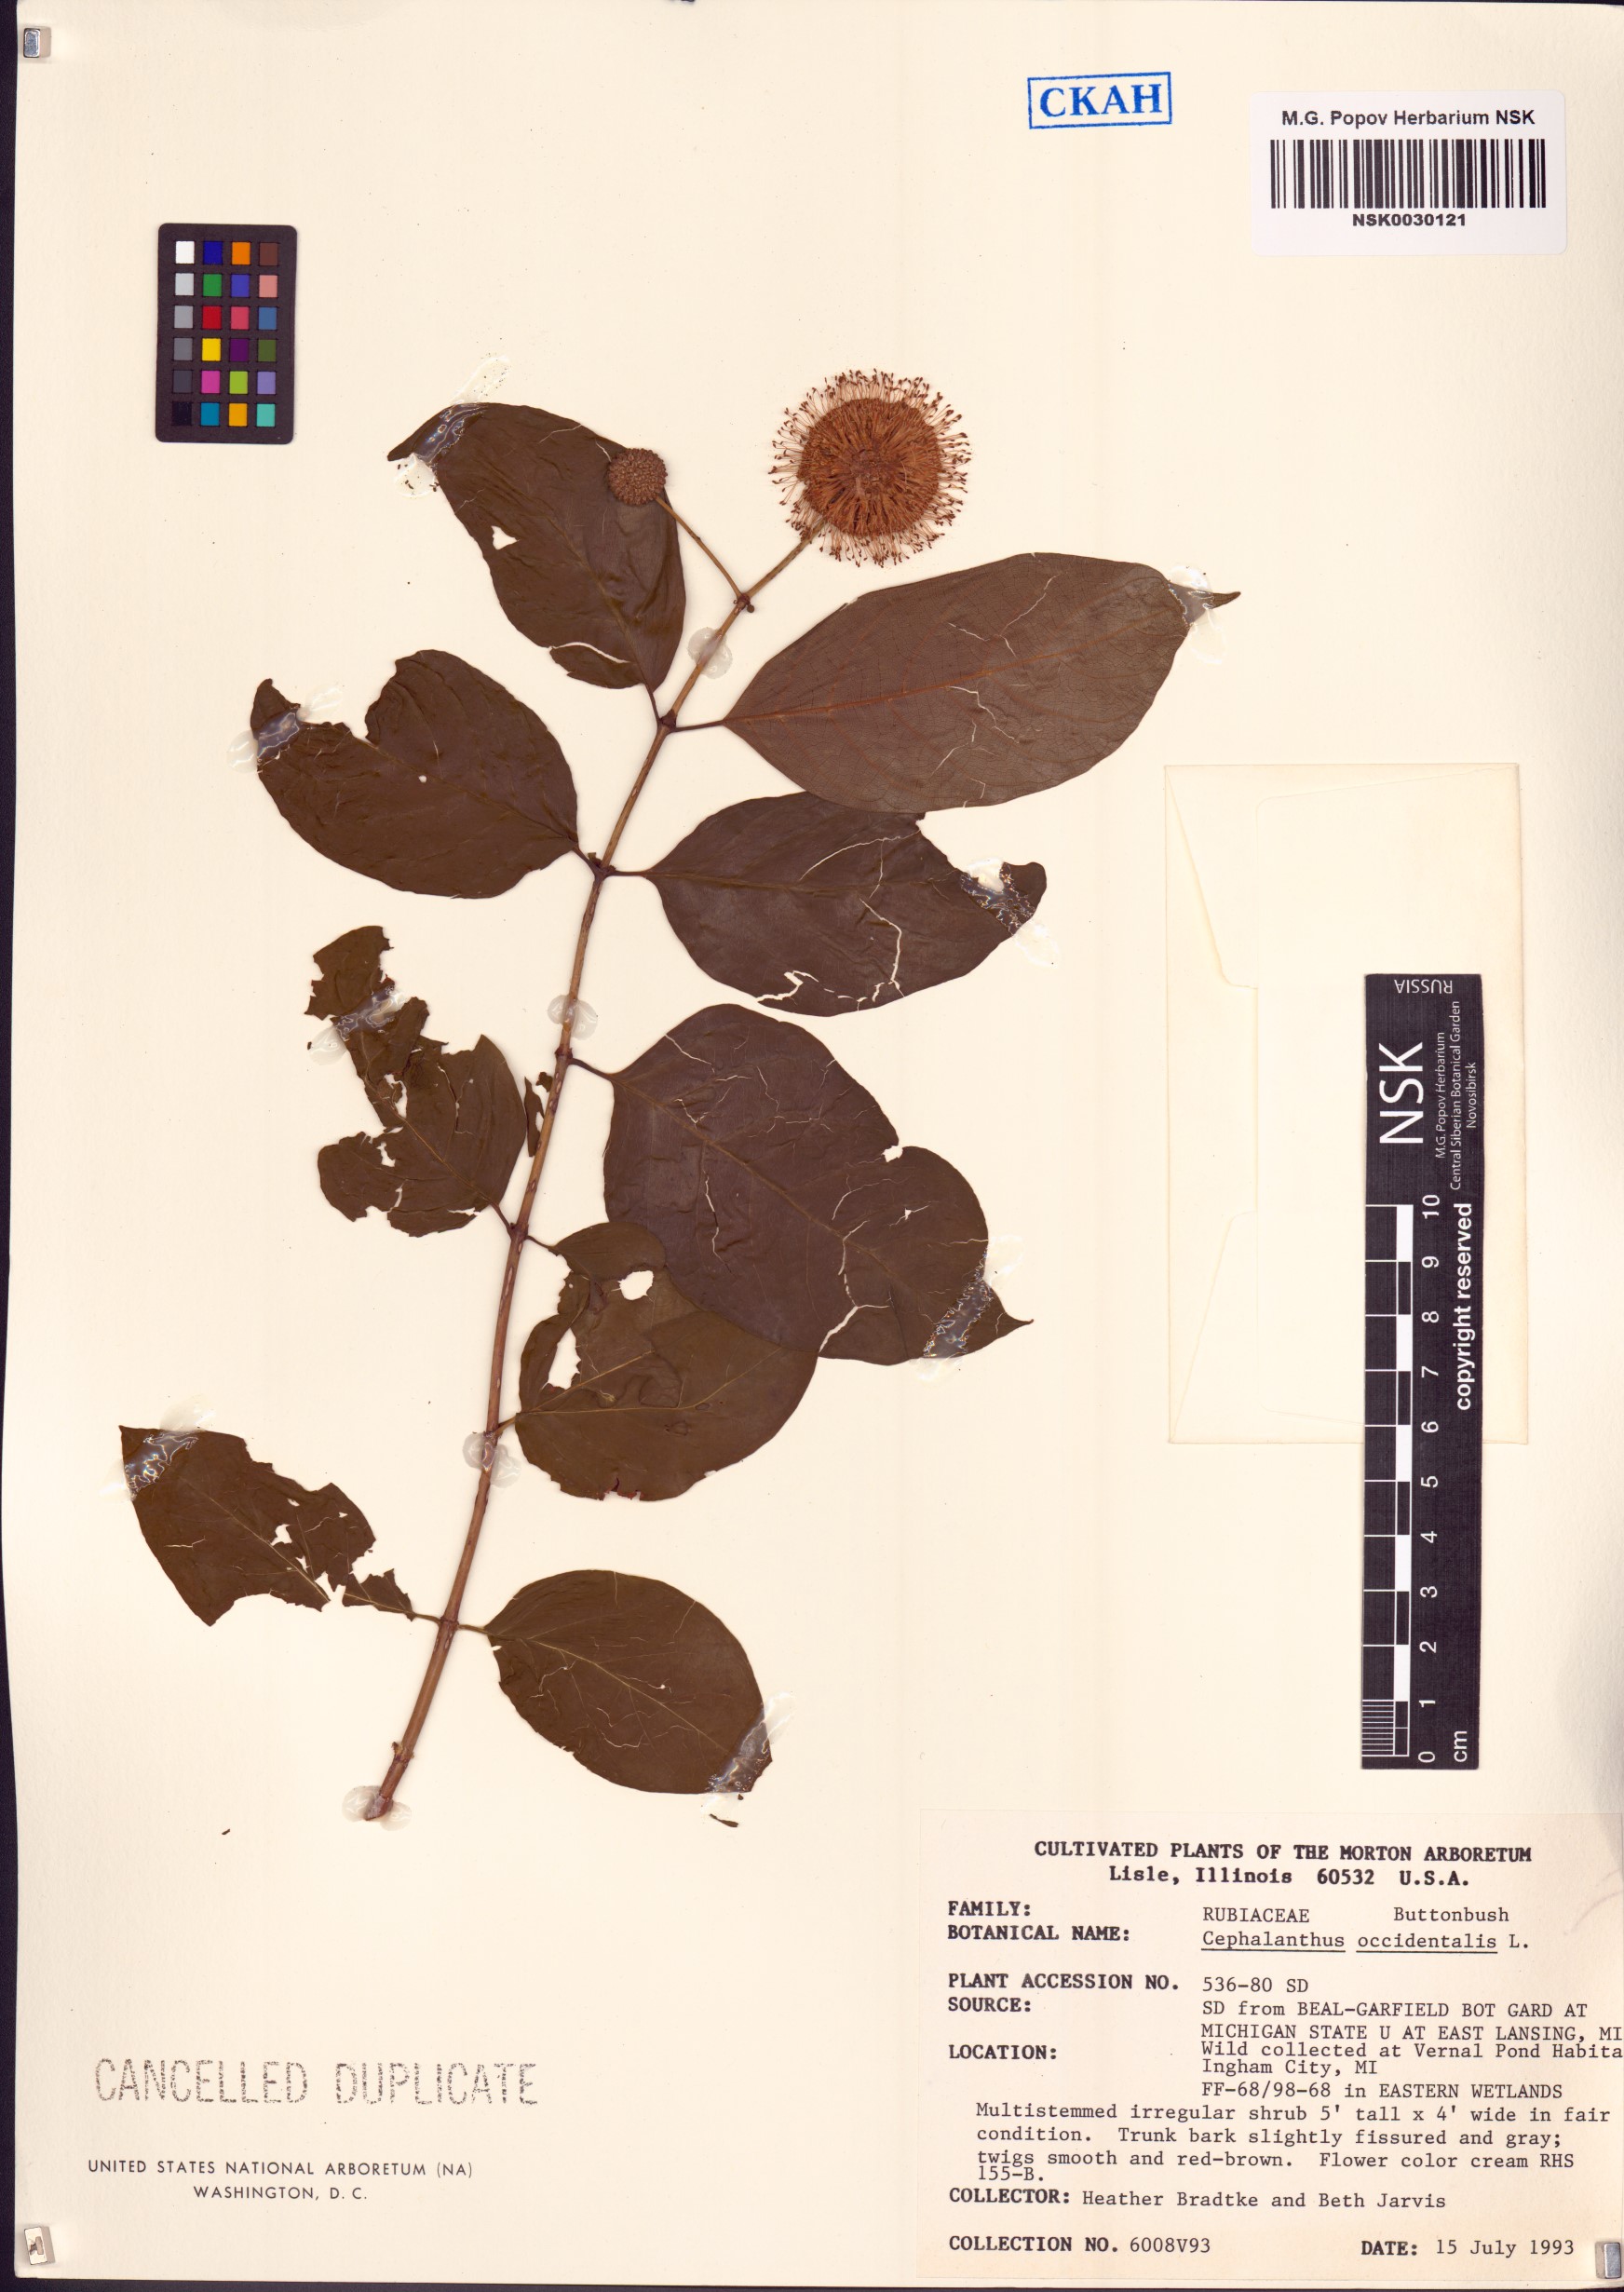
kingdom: Plantae
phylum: Tracheophyta
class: Magnoliopsida
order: Gentianales
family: Rubiaceae
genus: Cephalanthus
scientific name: Cephalanthus occidentalis
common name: Button-willow
